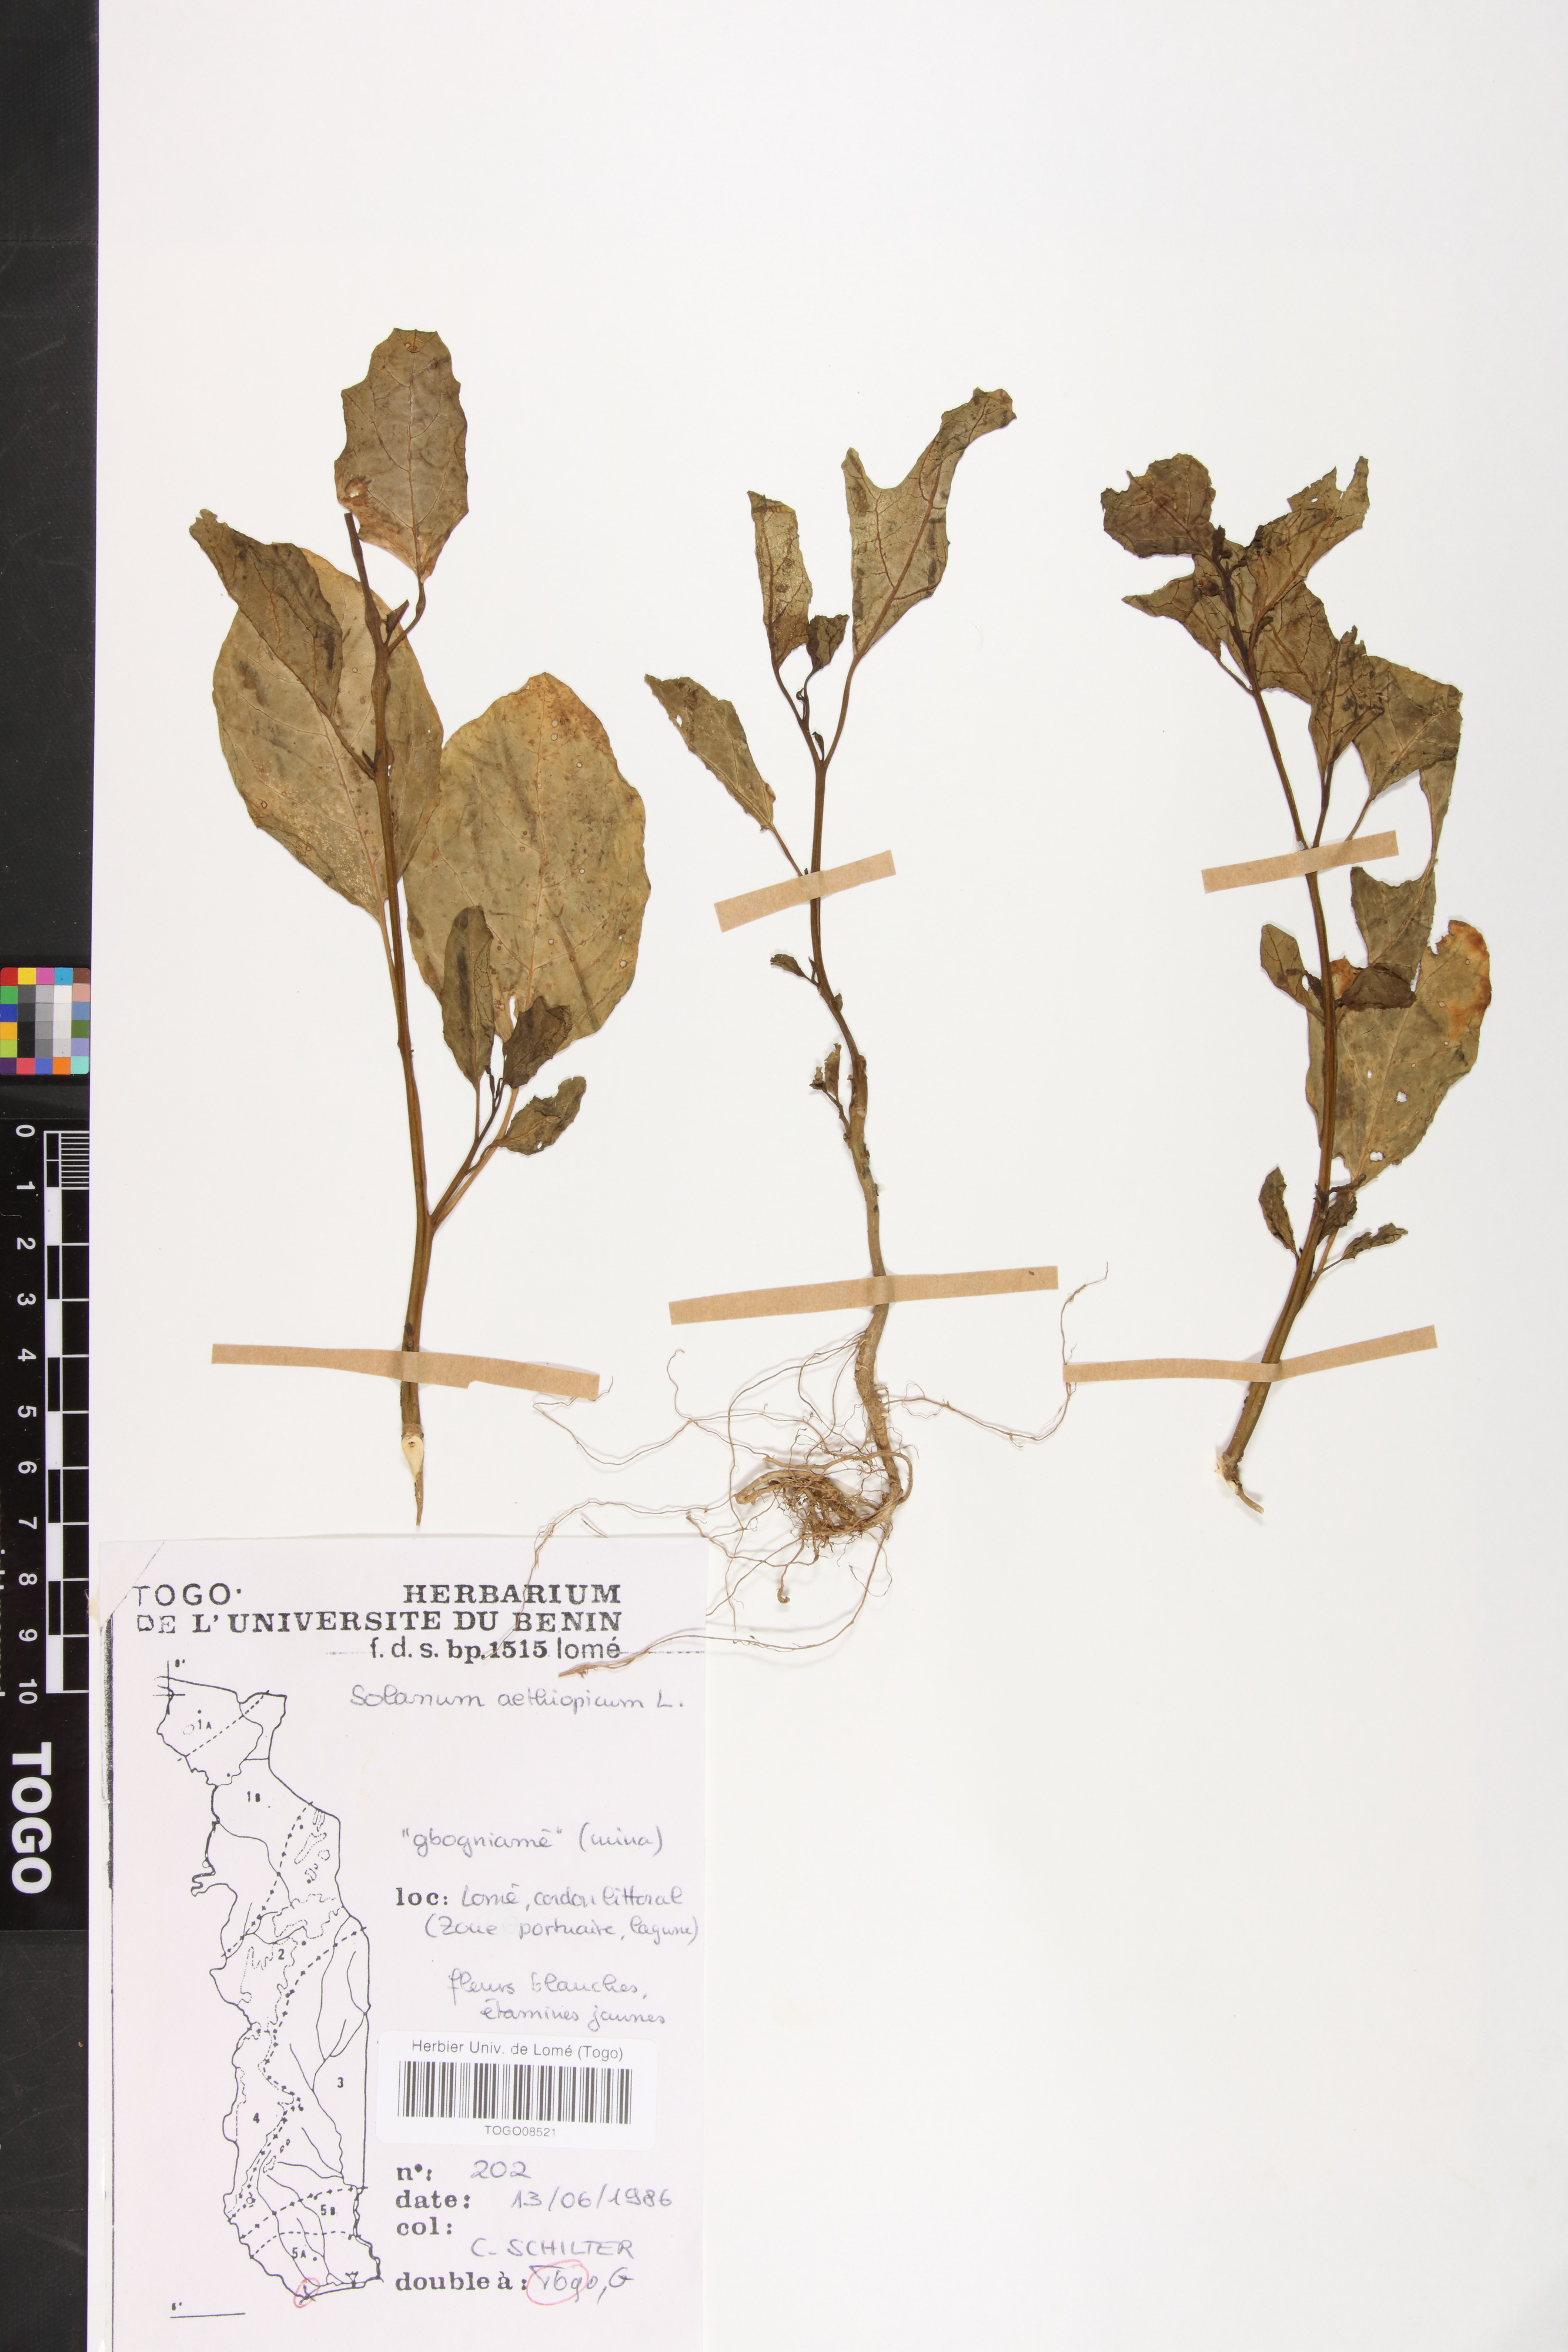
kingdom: Plantae
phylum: Tracheophyta
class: Magnoliopsida
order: Solanales
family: Solanaceae
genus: Solanum
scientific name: Solanum aethiopicum
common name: Gilo
